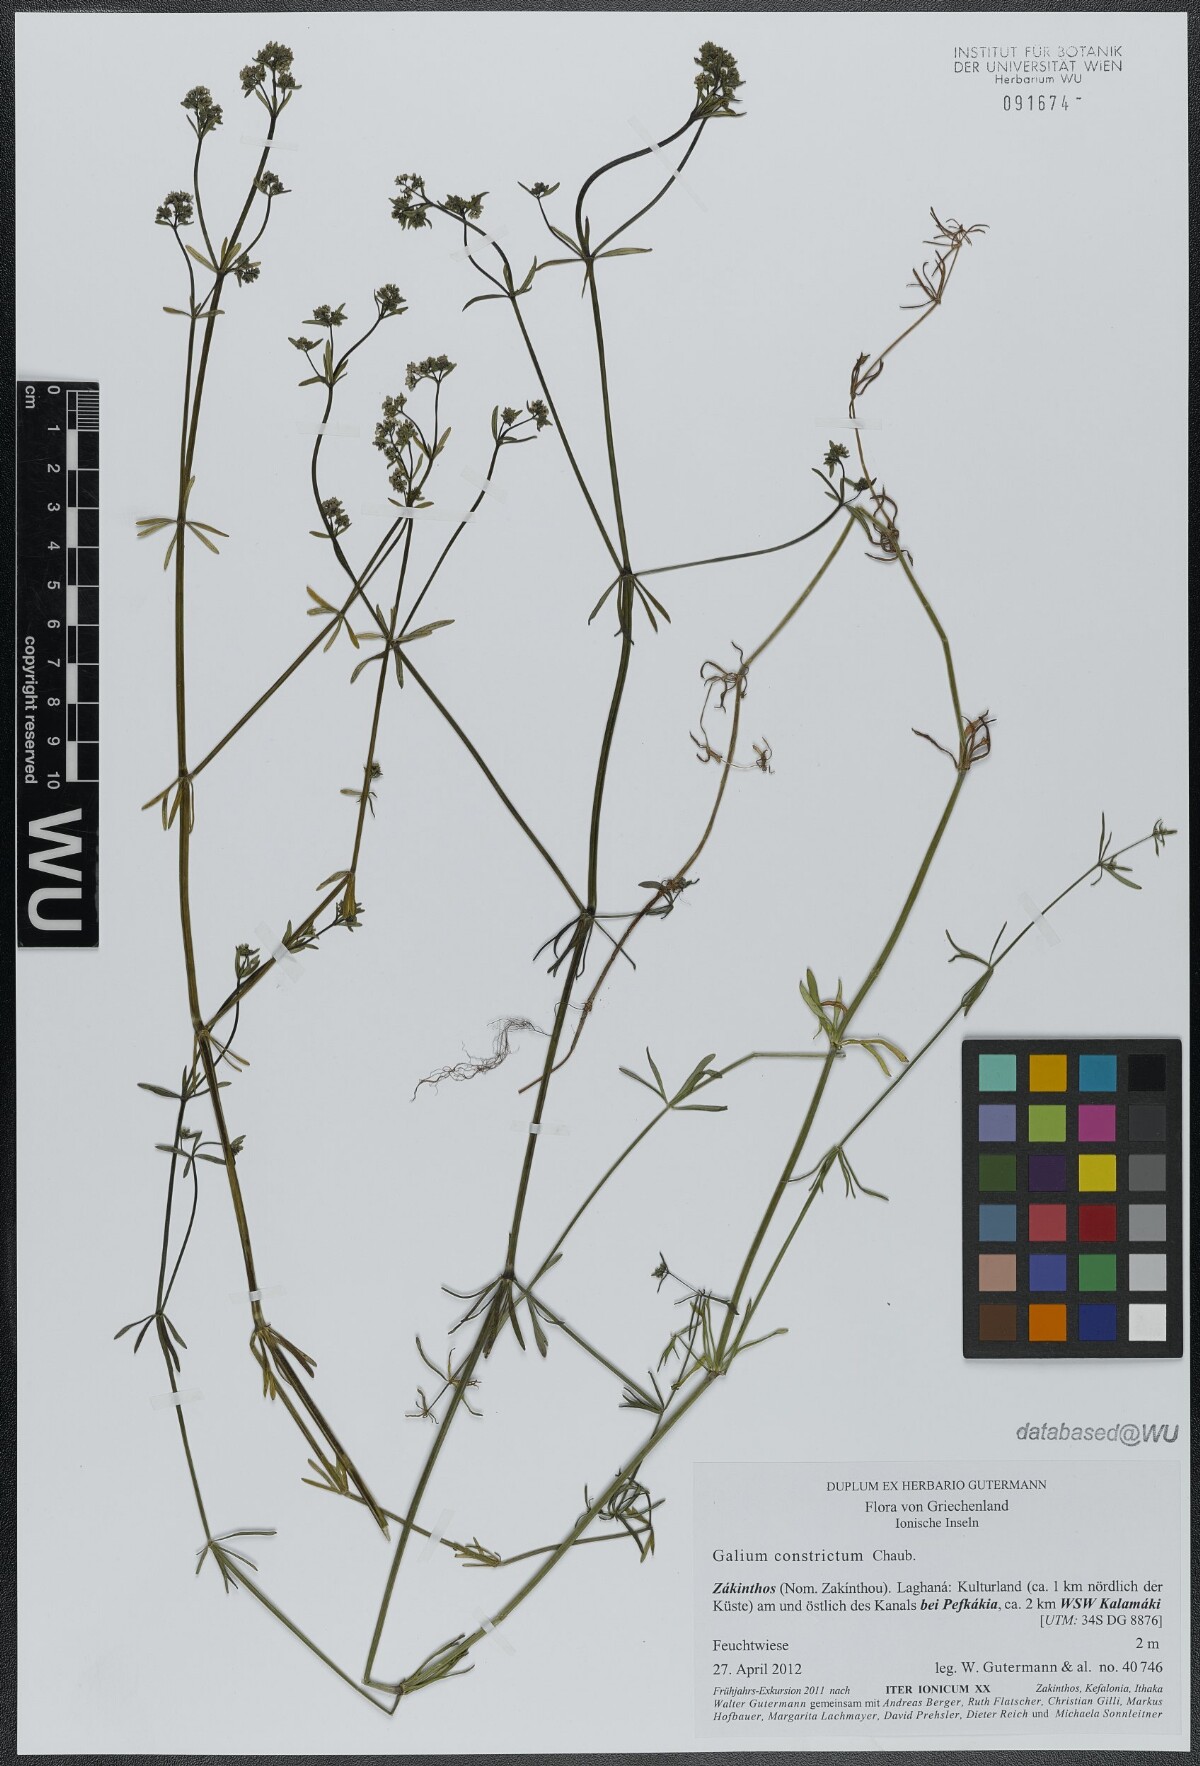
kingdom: Plantae
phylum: Tracheophyta
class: Magnoliopsida
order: Gentianales
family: Rubiaceae
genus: Galium
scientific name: Galium debile
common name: Slender marsh-bedstraw
